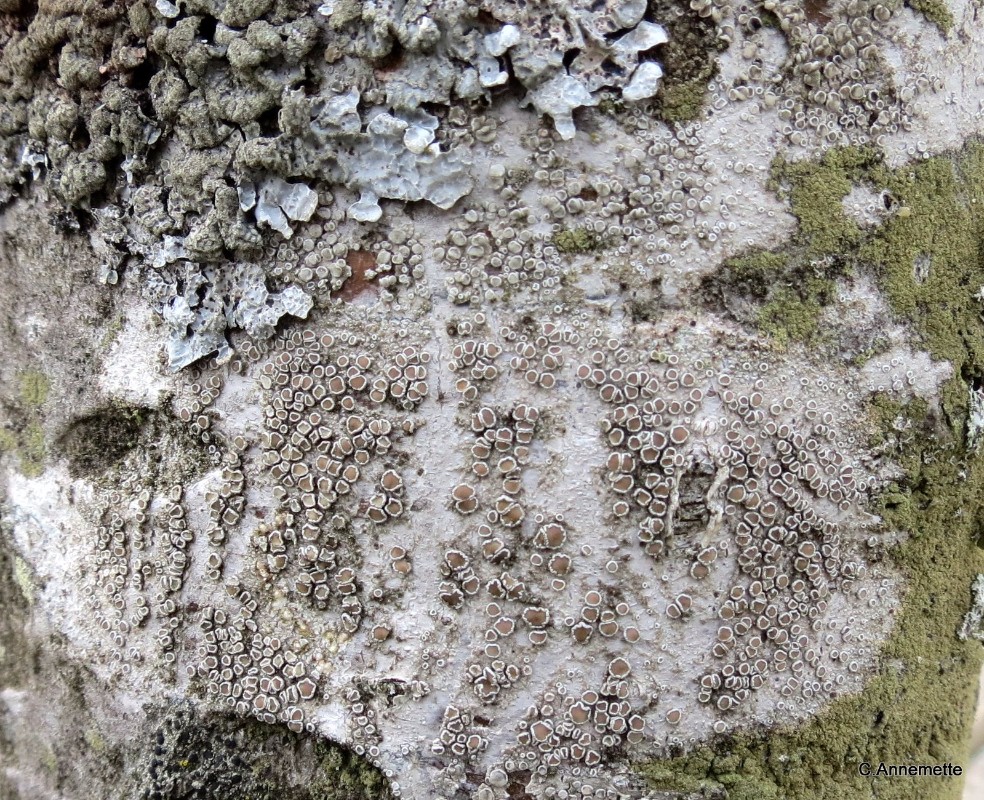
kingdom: Fungi
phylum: Ascomycota
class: Lecanoromycetes
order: Lecanorales
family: Lecanoraceae
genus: Lecanora
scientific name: Lecanora chlarotera
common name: brun kantskivelav
